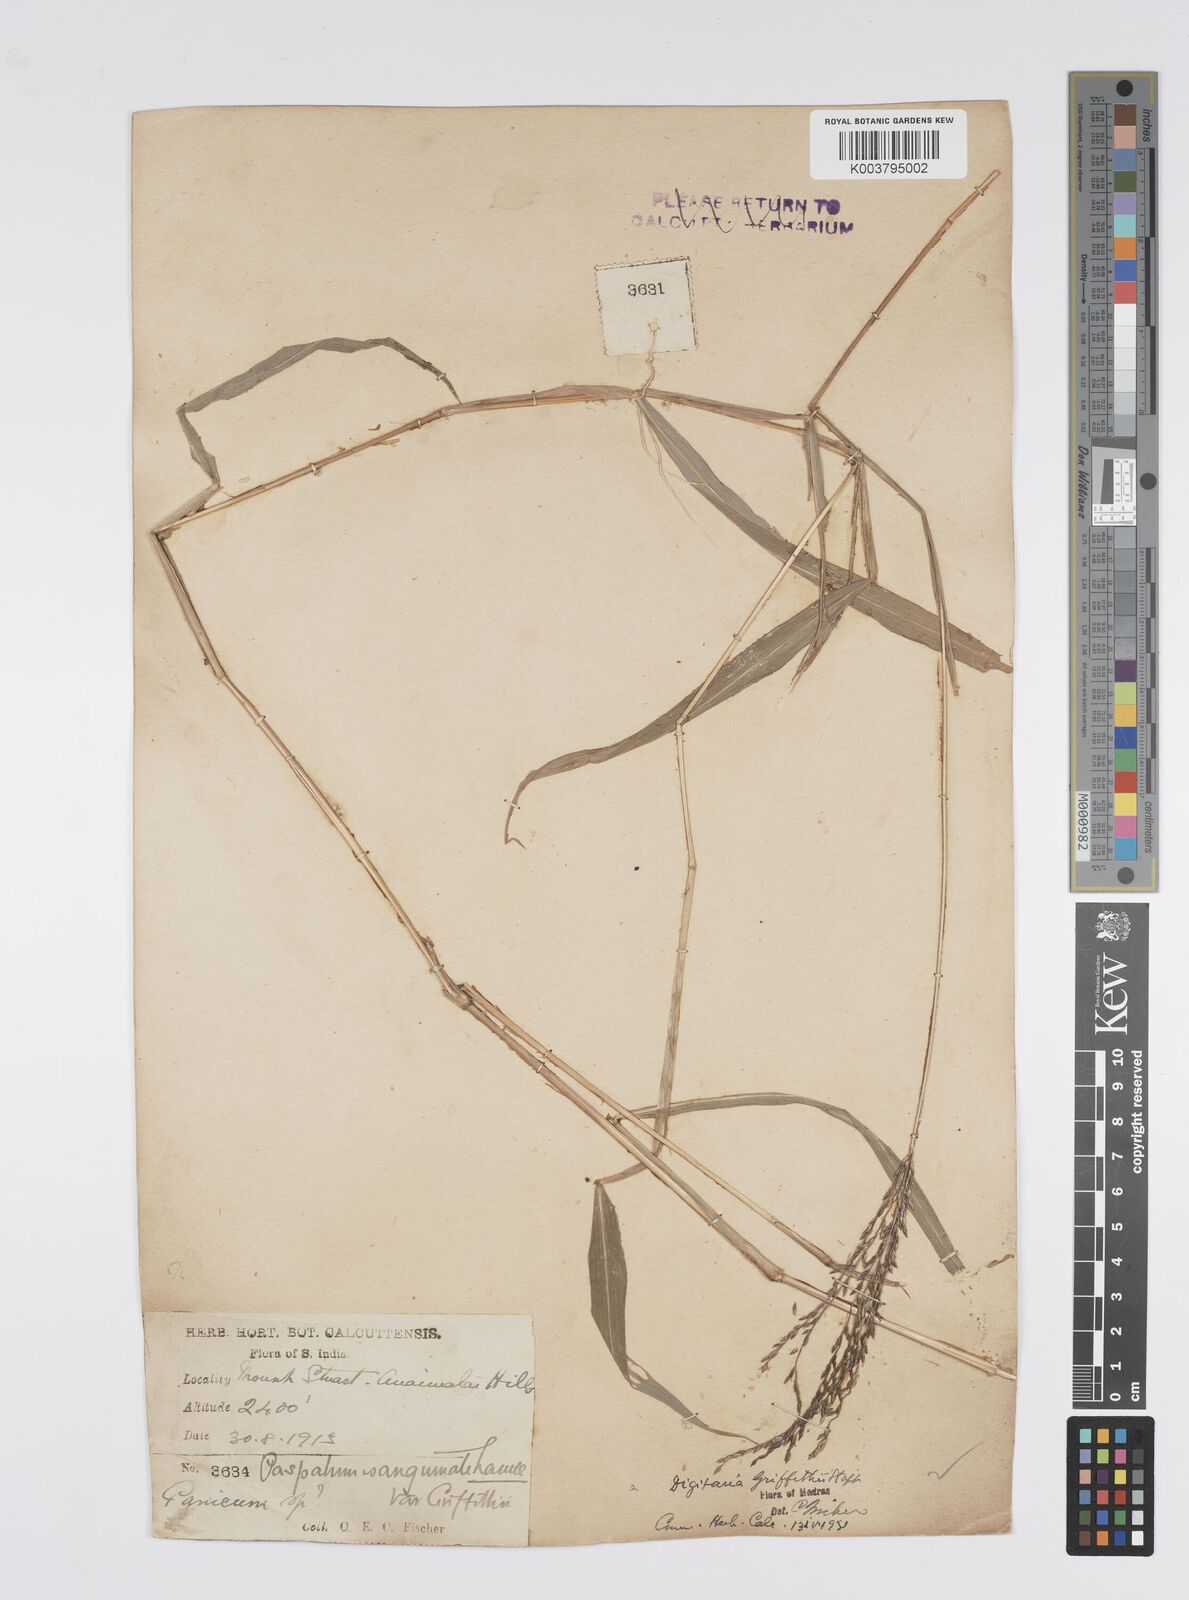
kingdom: Plantae
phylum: Tracheophyta
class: Liliopsida
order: Poales
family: Poaceae
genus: Digitaria
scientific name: Digitaria griffithii
